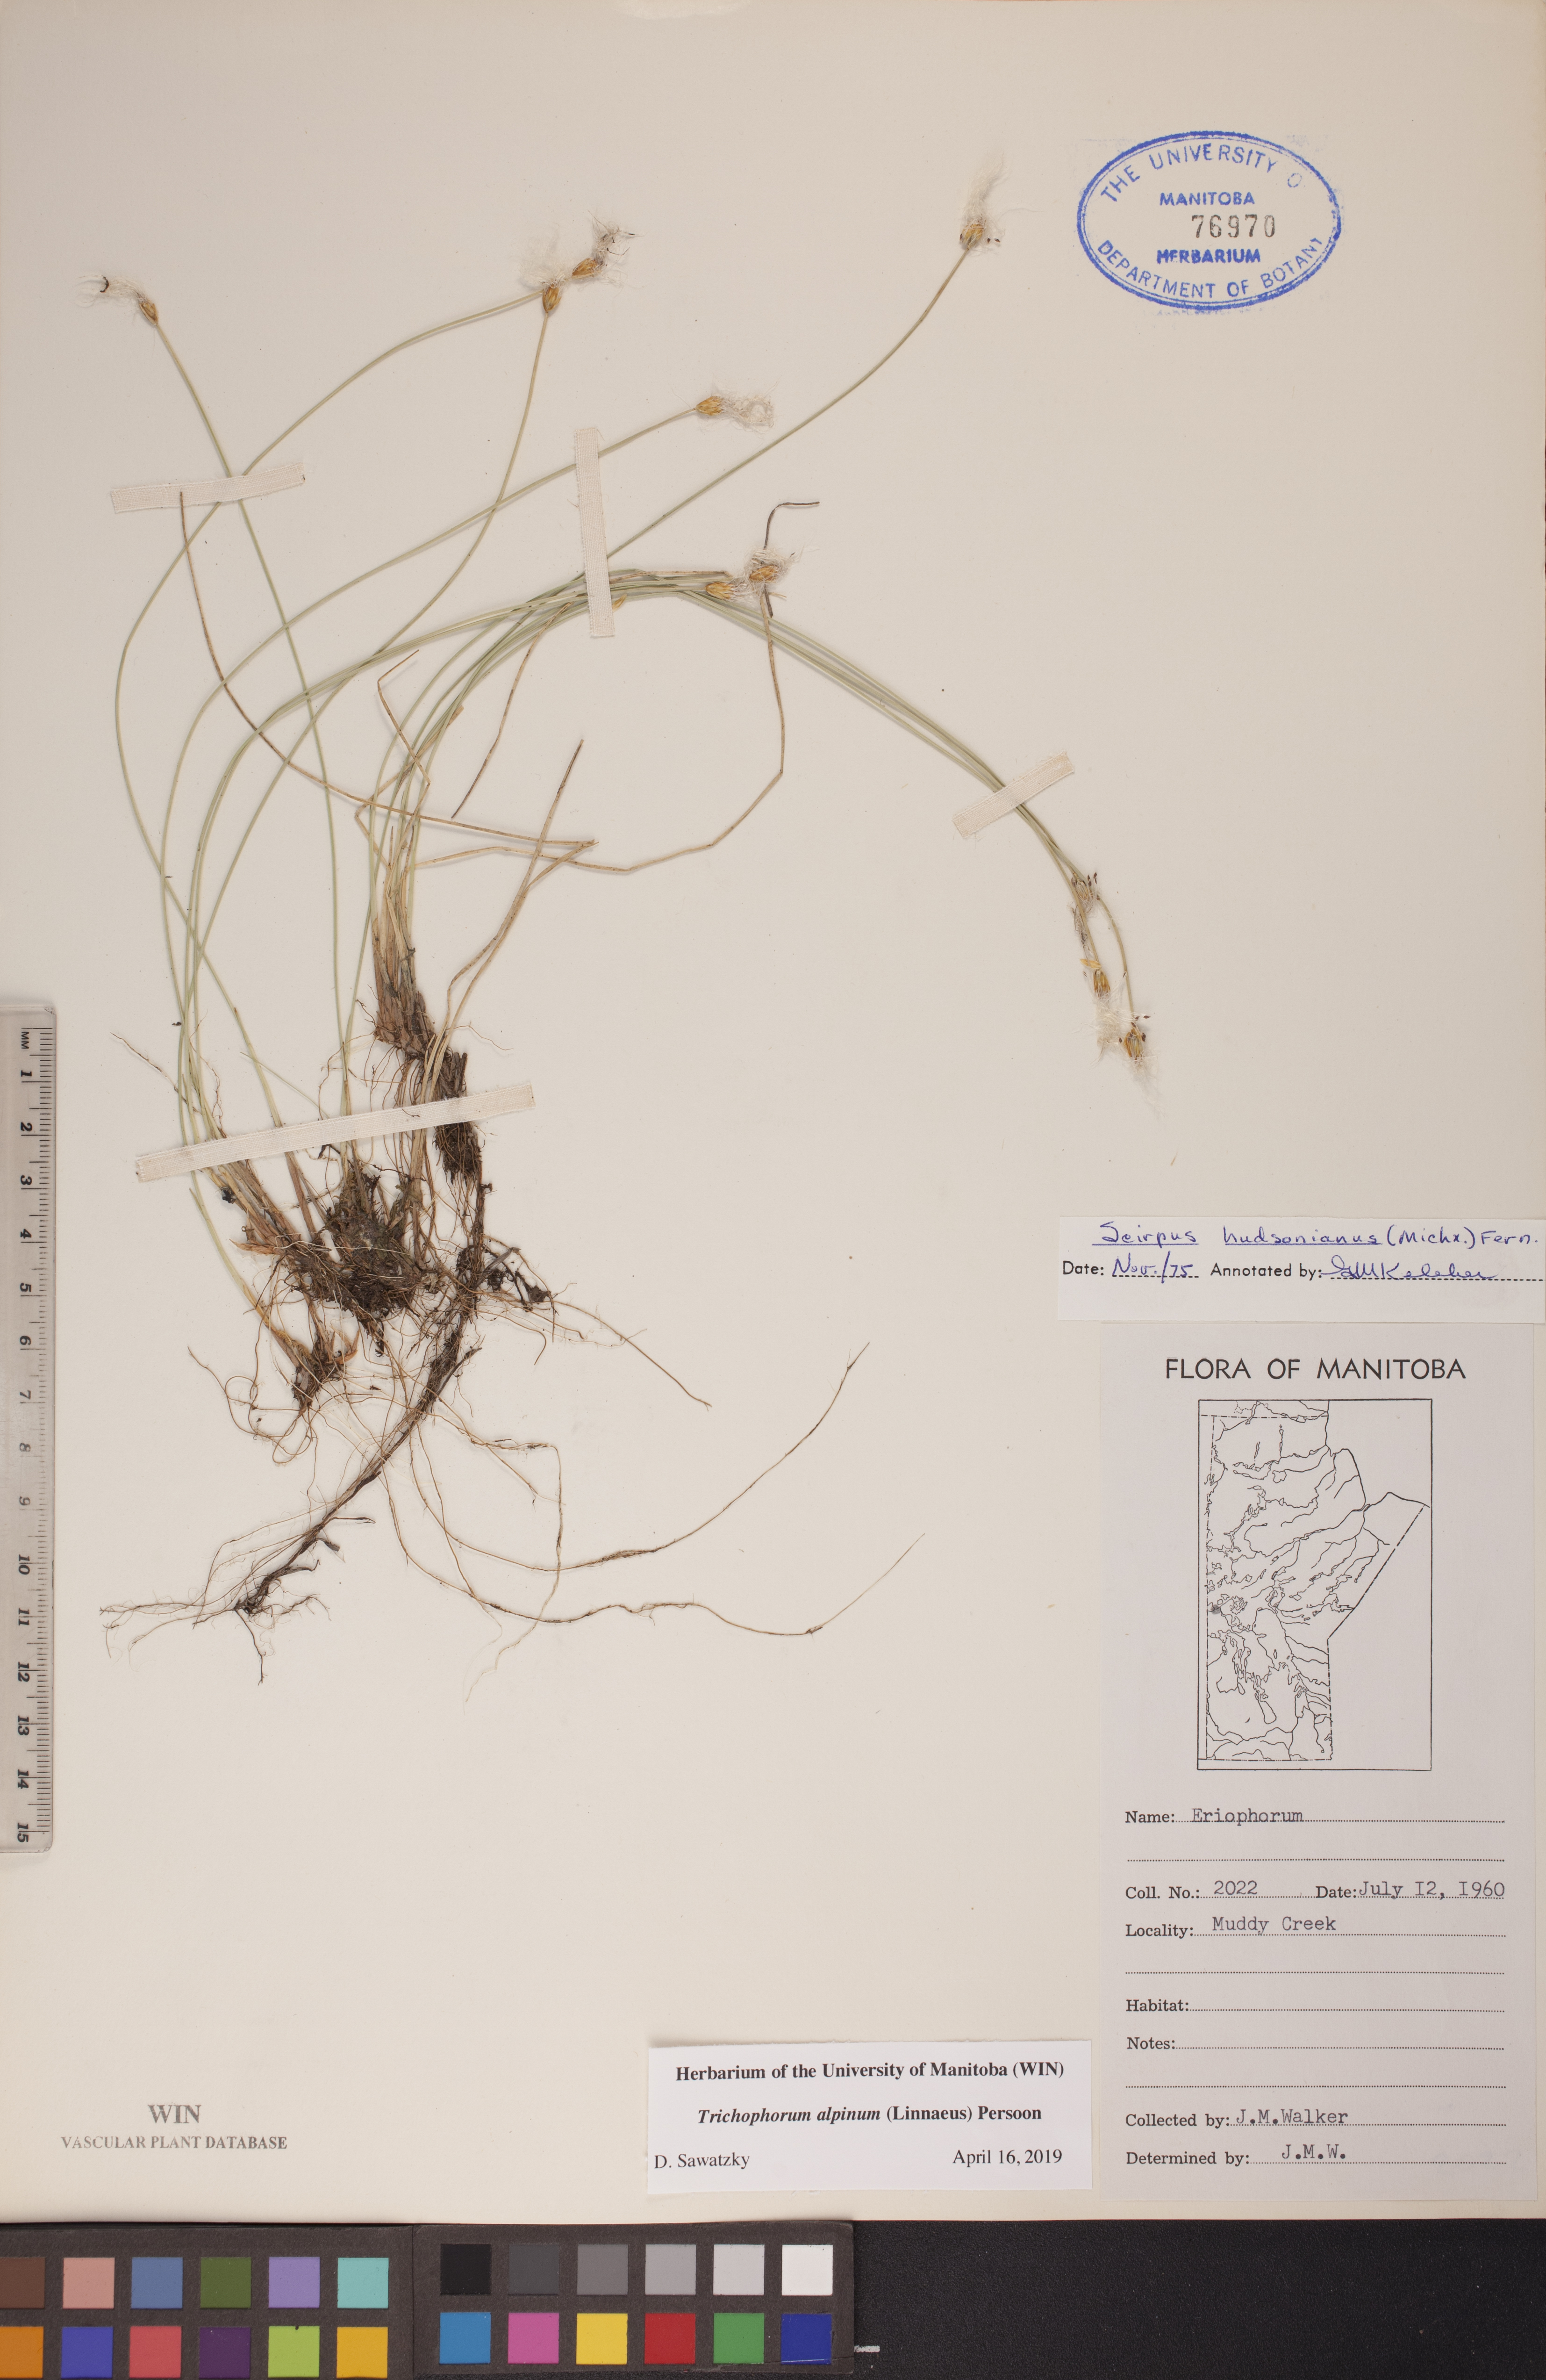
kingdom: Plantae
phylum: Tracheophyta
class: Liliopsida
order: Poales
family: Cyperaceae
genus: Trichophorum
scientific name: Trichophorum alpinum
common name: Alpine bulrush
